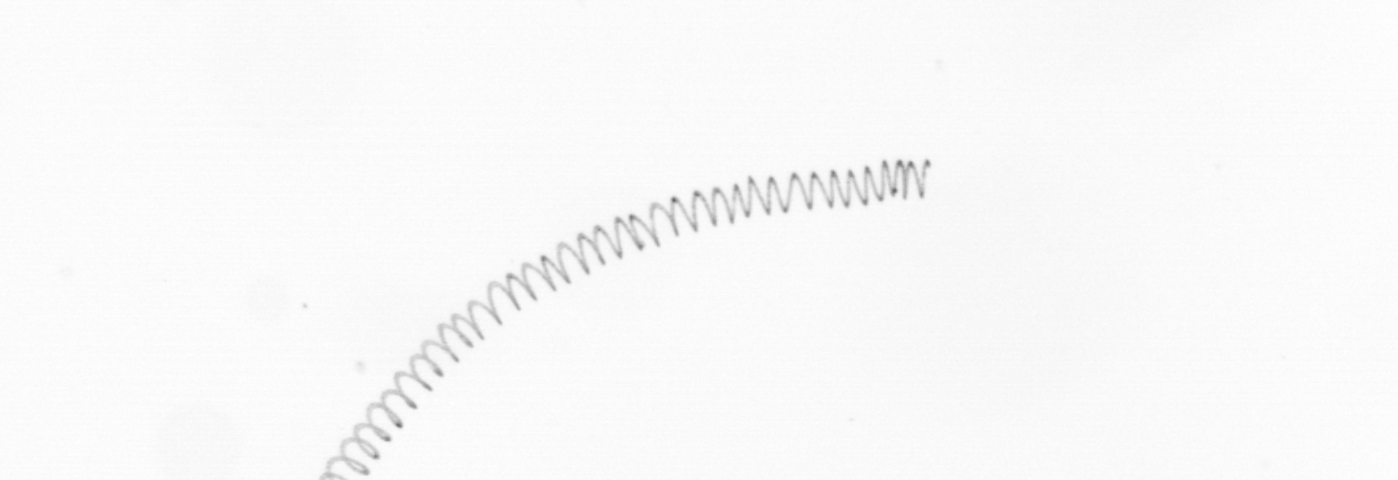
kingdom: Chromista
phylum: Ochrophyta
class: Bacillariophyceae
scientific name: Bacillariophyceae
